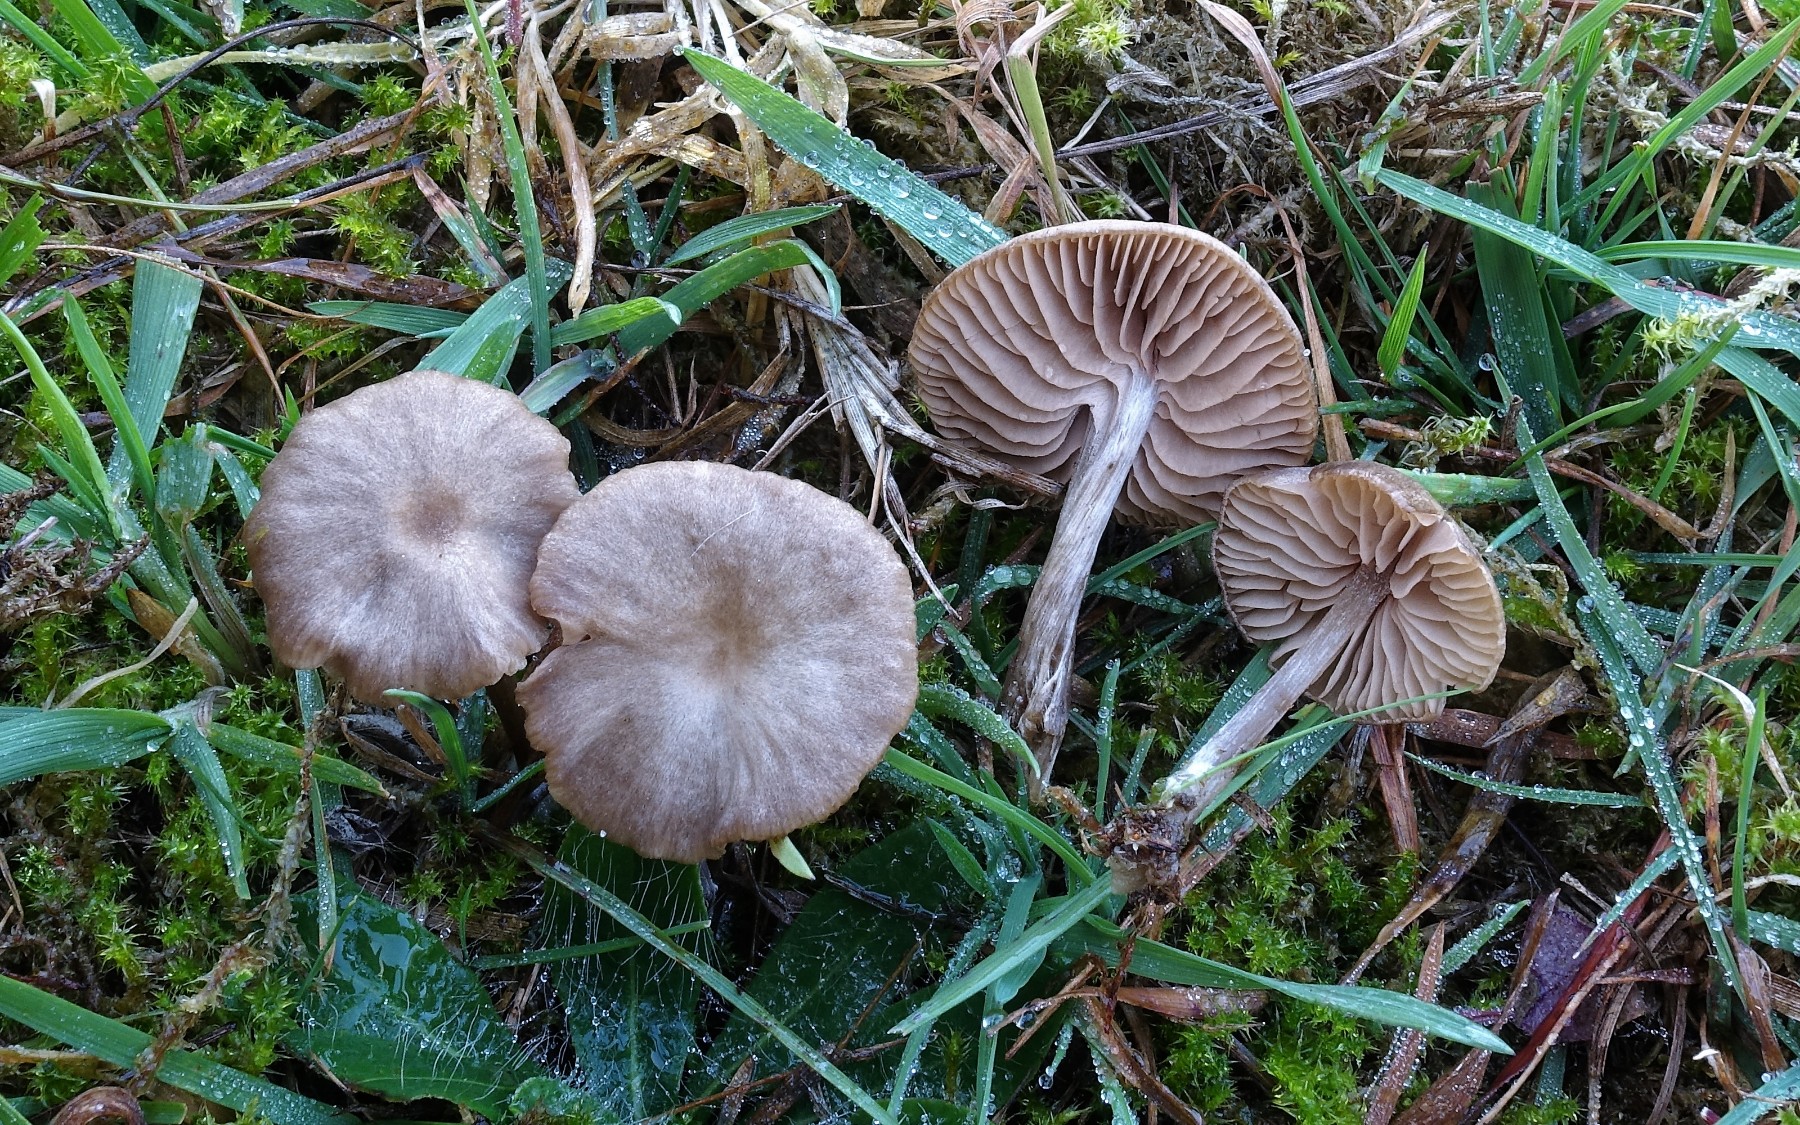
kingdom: Fungi
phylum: Basidiomycota
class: Agaricomycetes
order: Agaricales
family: Entolomataceae
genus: Entoloma
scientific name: Entoloma ortonii
